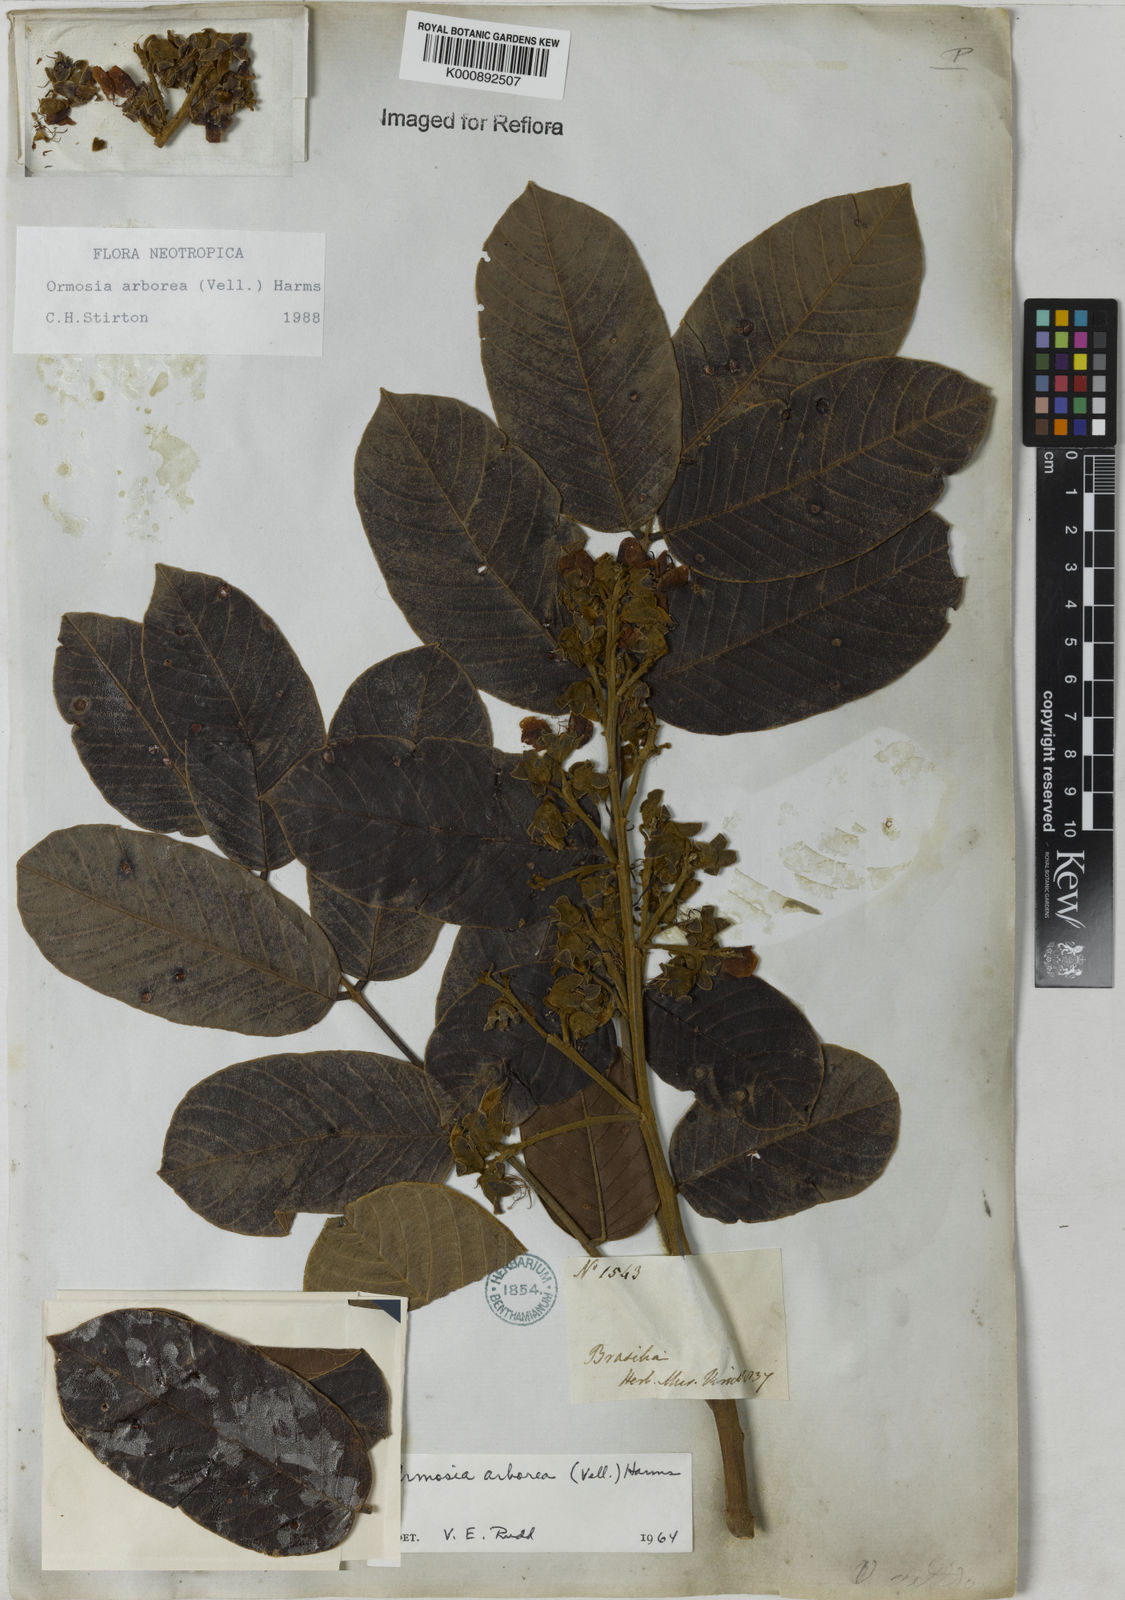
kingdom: Plantae
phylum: Tracheophyta
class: Magnoliopsida
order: Fabales
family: Fabaceae
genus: Ormosia
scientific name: Ormosia arborea
